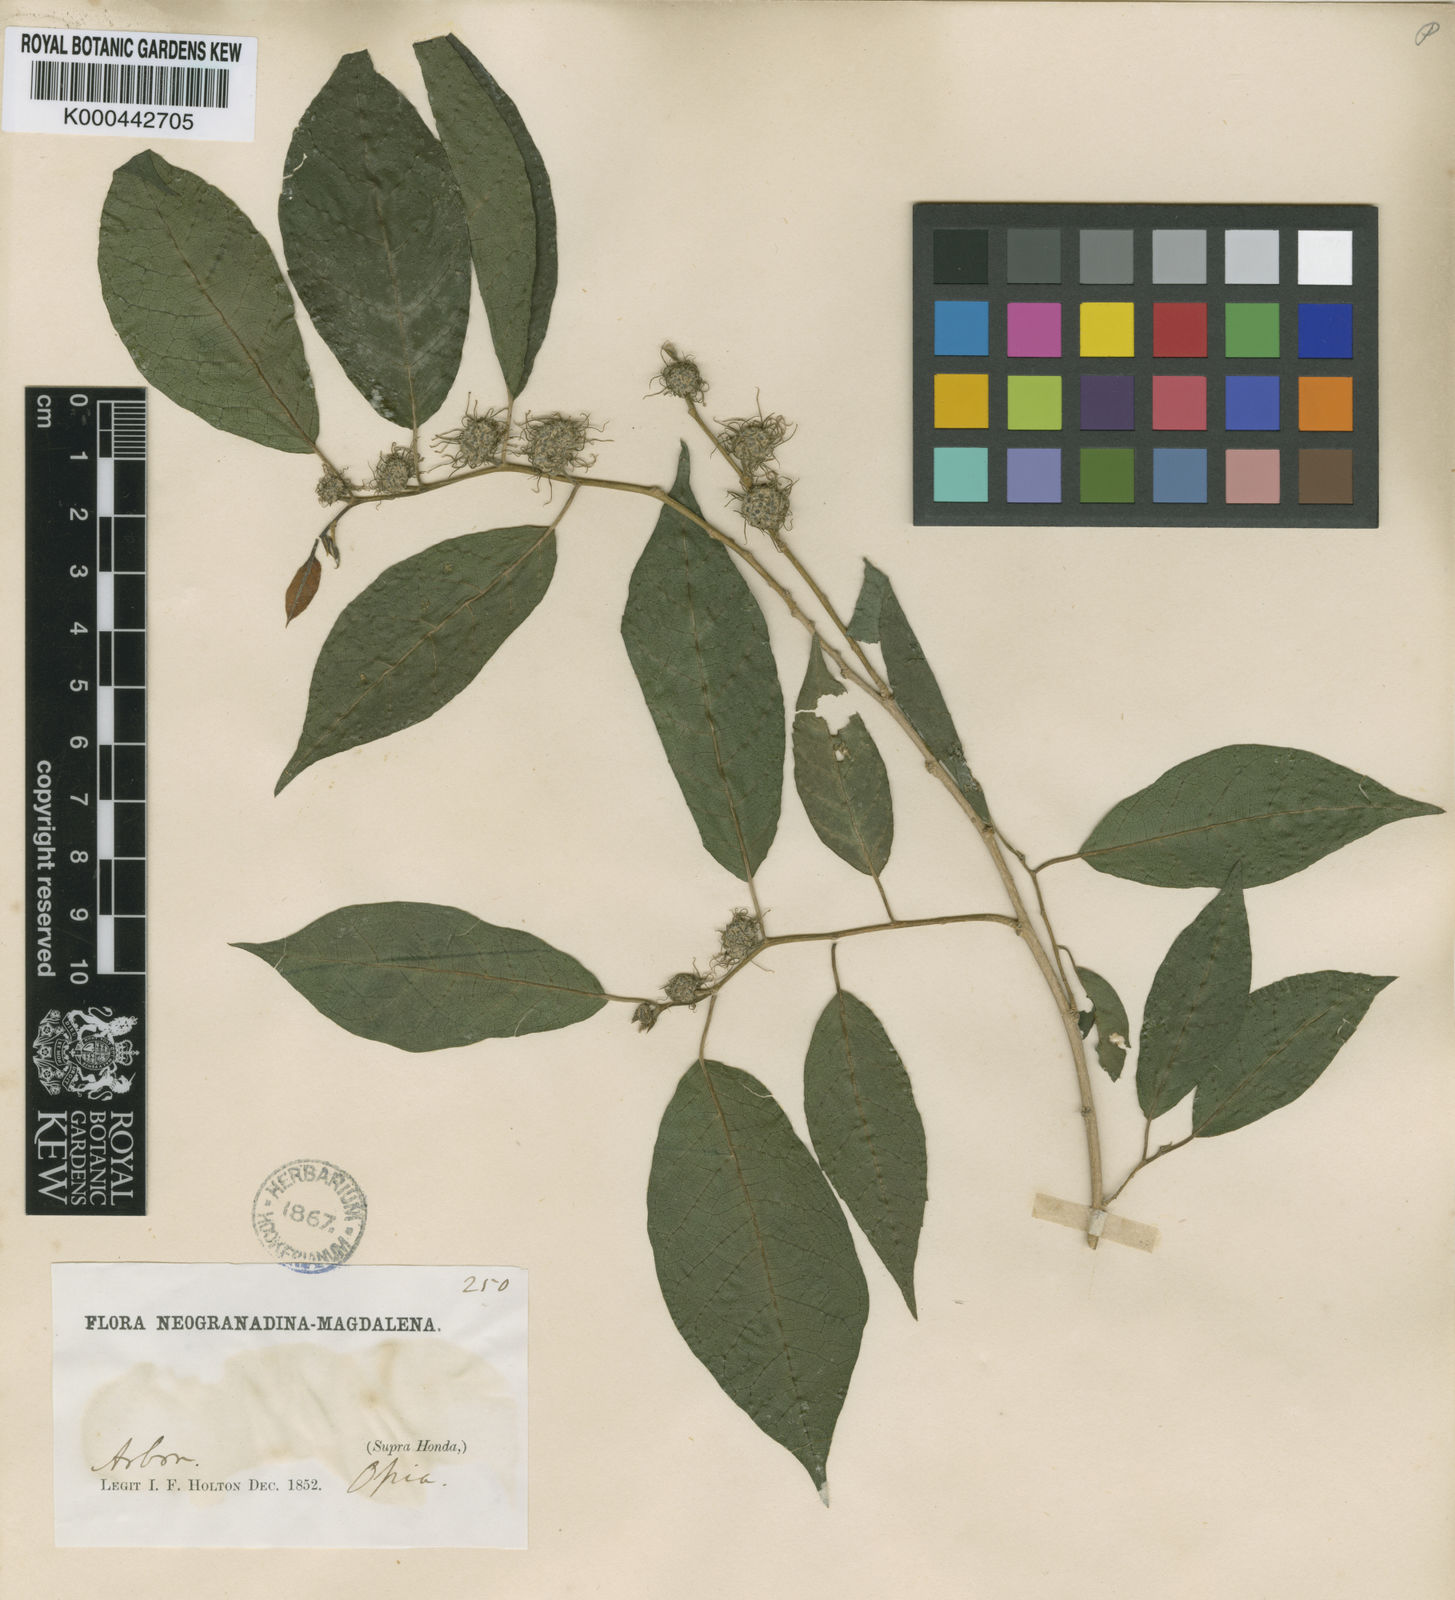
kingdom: Plantae
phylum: Tracheophyta
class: Magnoliopsida
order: Rosales
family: Moraceae
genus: Maclura
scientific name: Maclura tinctoria
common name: Old fustic
